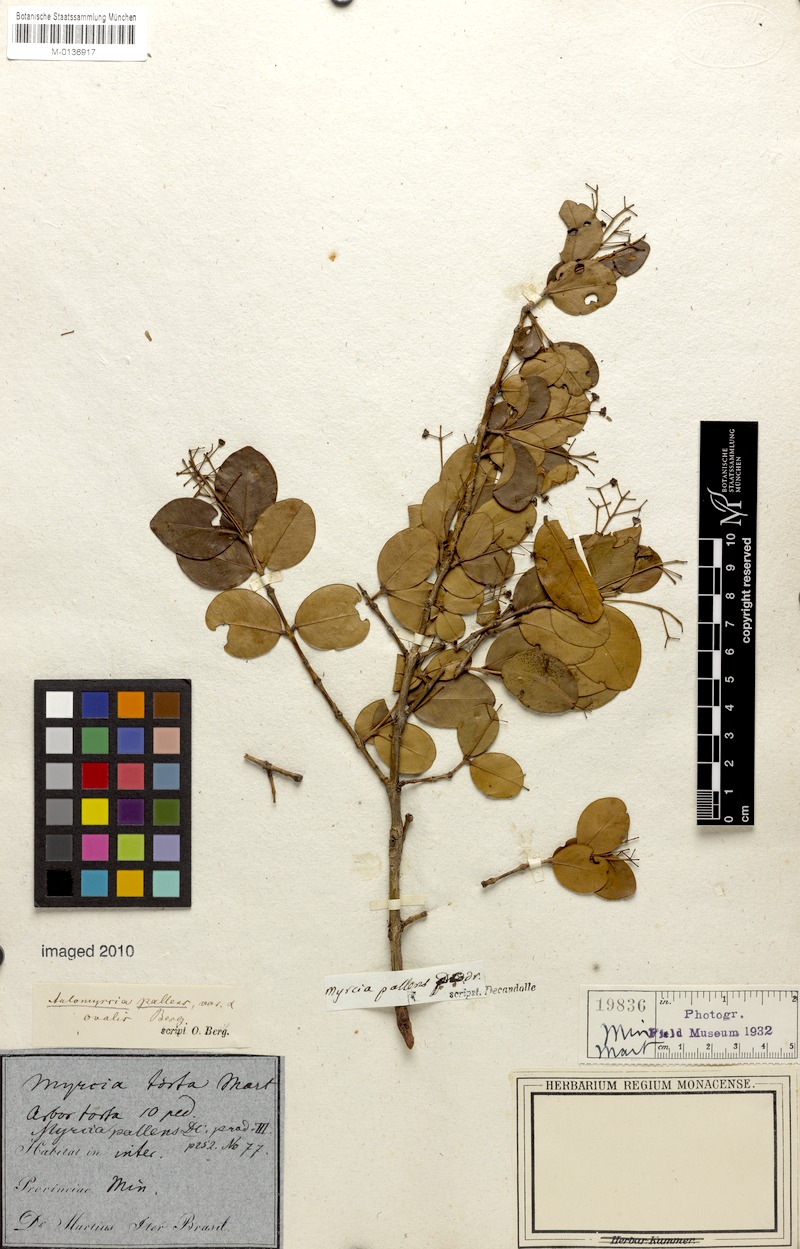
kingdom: Plantae
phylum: Tracheophyta
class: Magnoliopsida
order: Myrtales
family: Myrtaceae
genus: Myrcia
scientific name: Myrcia guianensis
